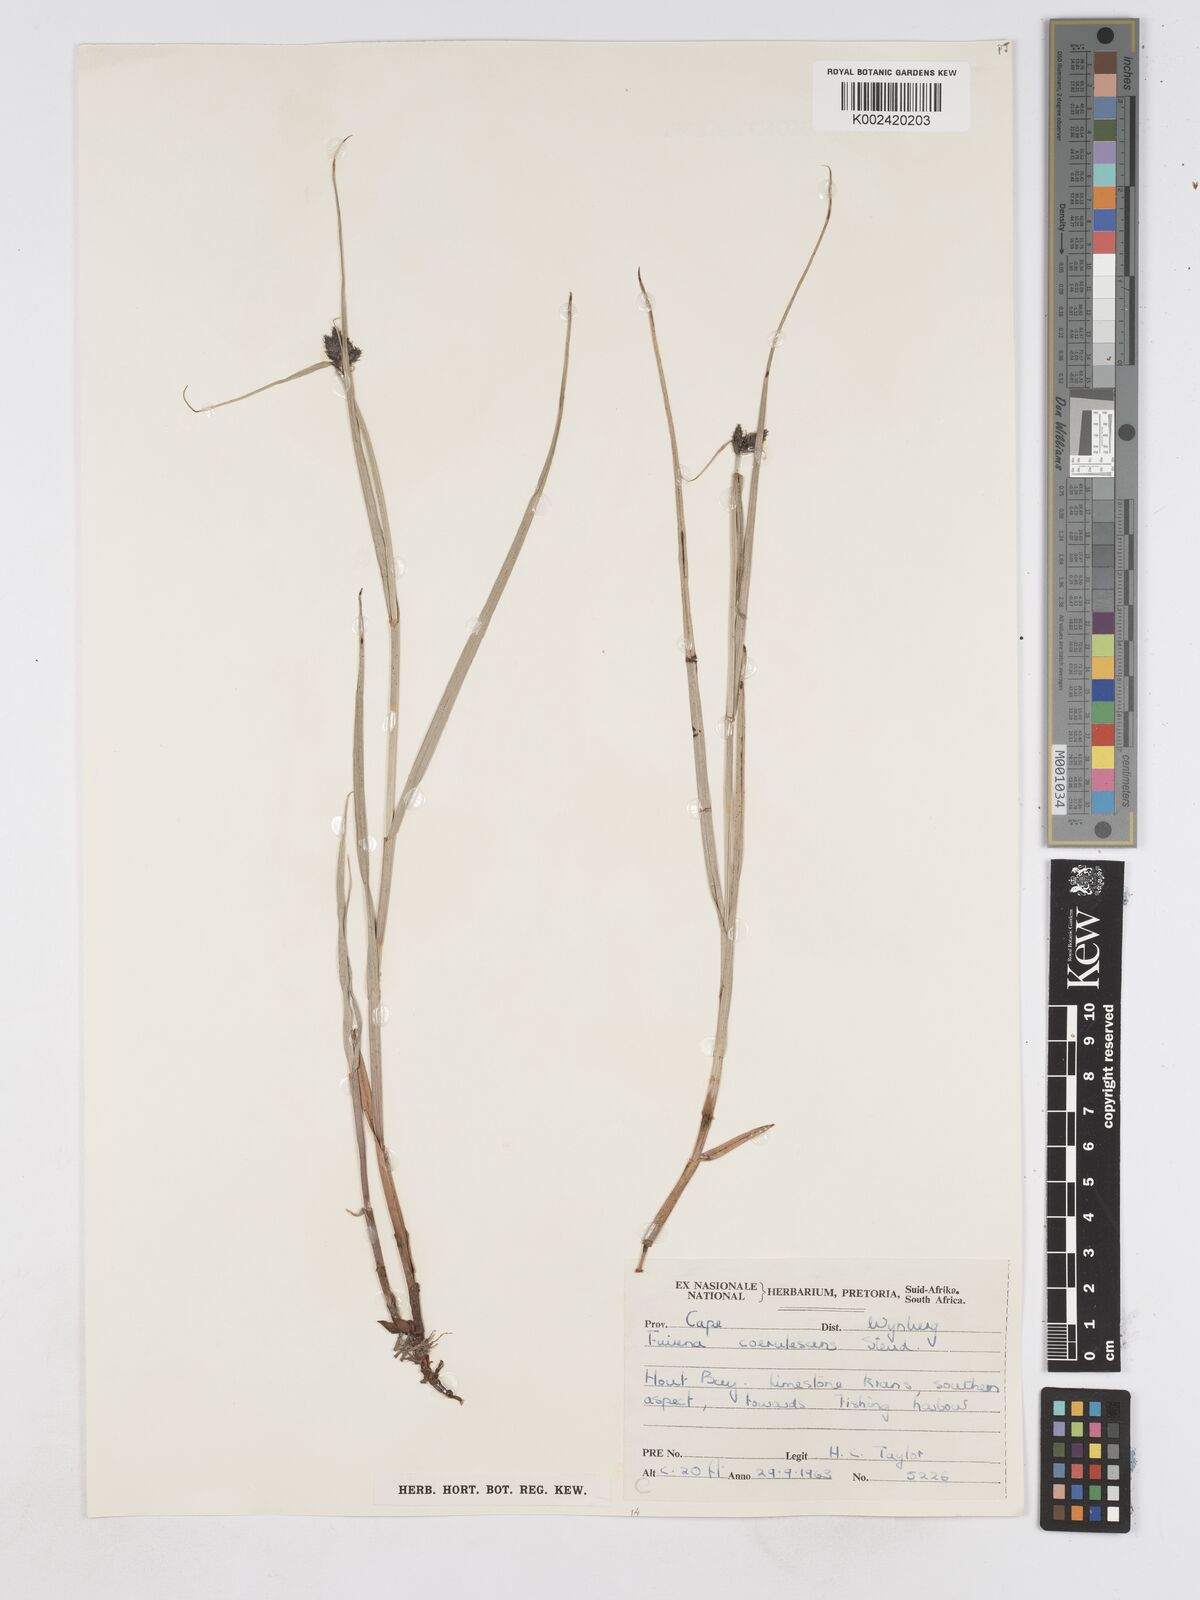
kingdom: Plantae
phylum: Tracheophyta
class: Liliopsida
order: Poales
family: Cyperaceae
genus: Fuirena
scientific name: Fuirena coerulescens
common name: Blue umbrella-sedge
